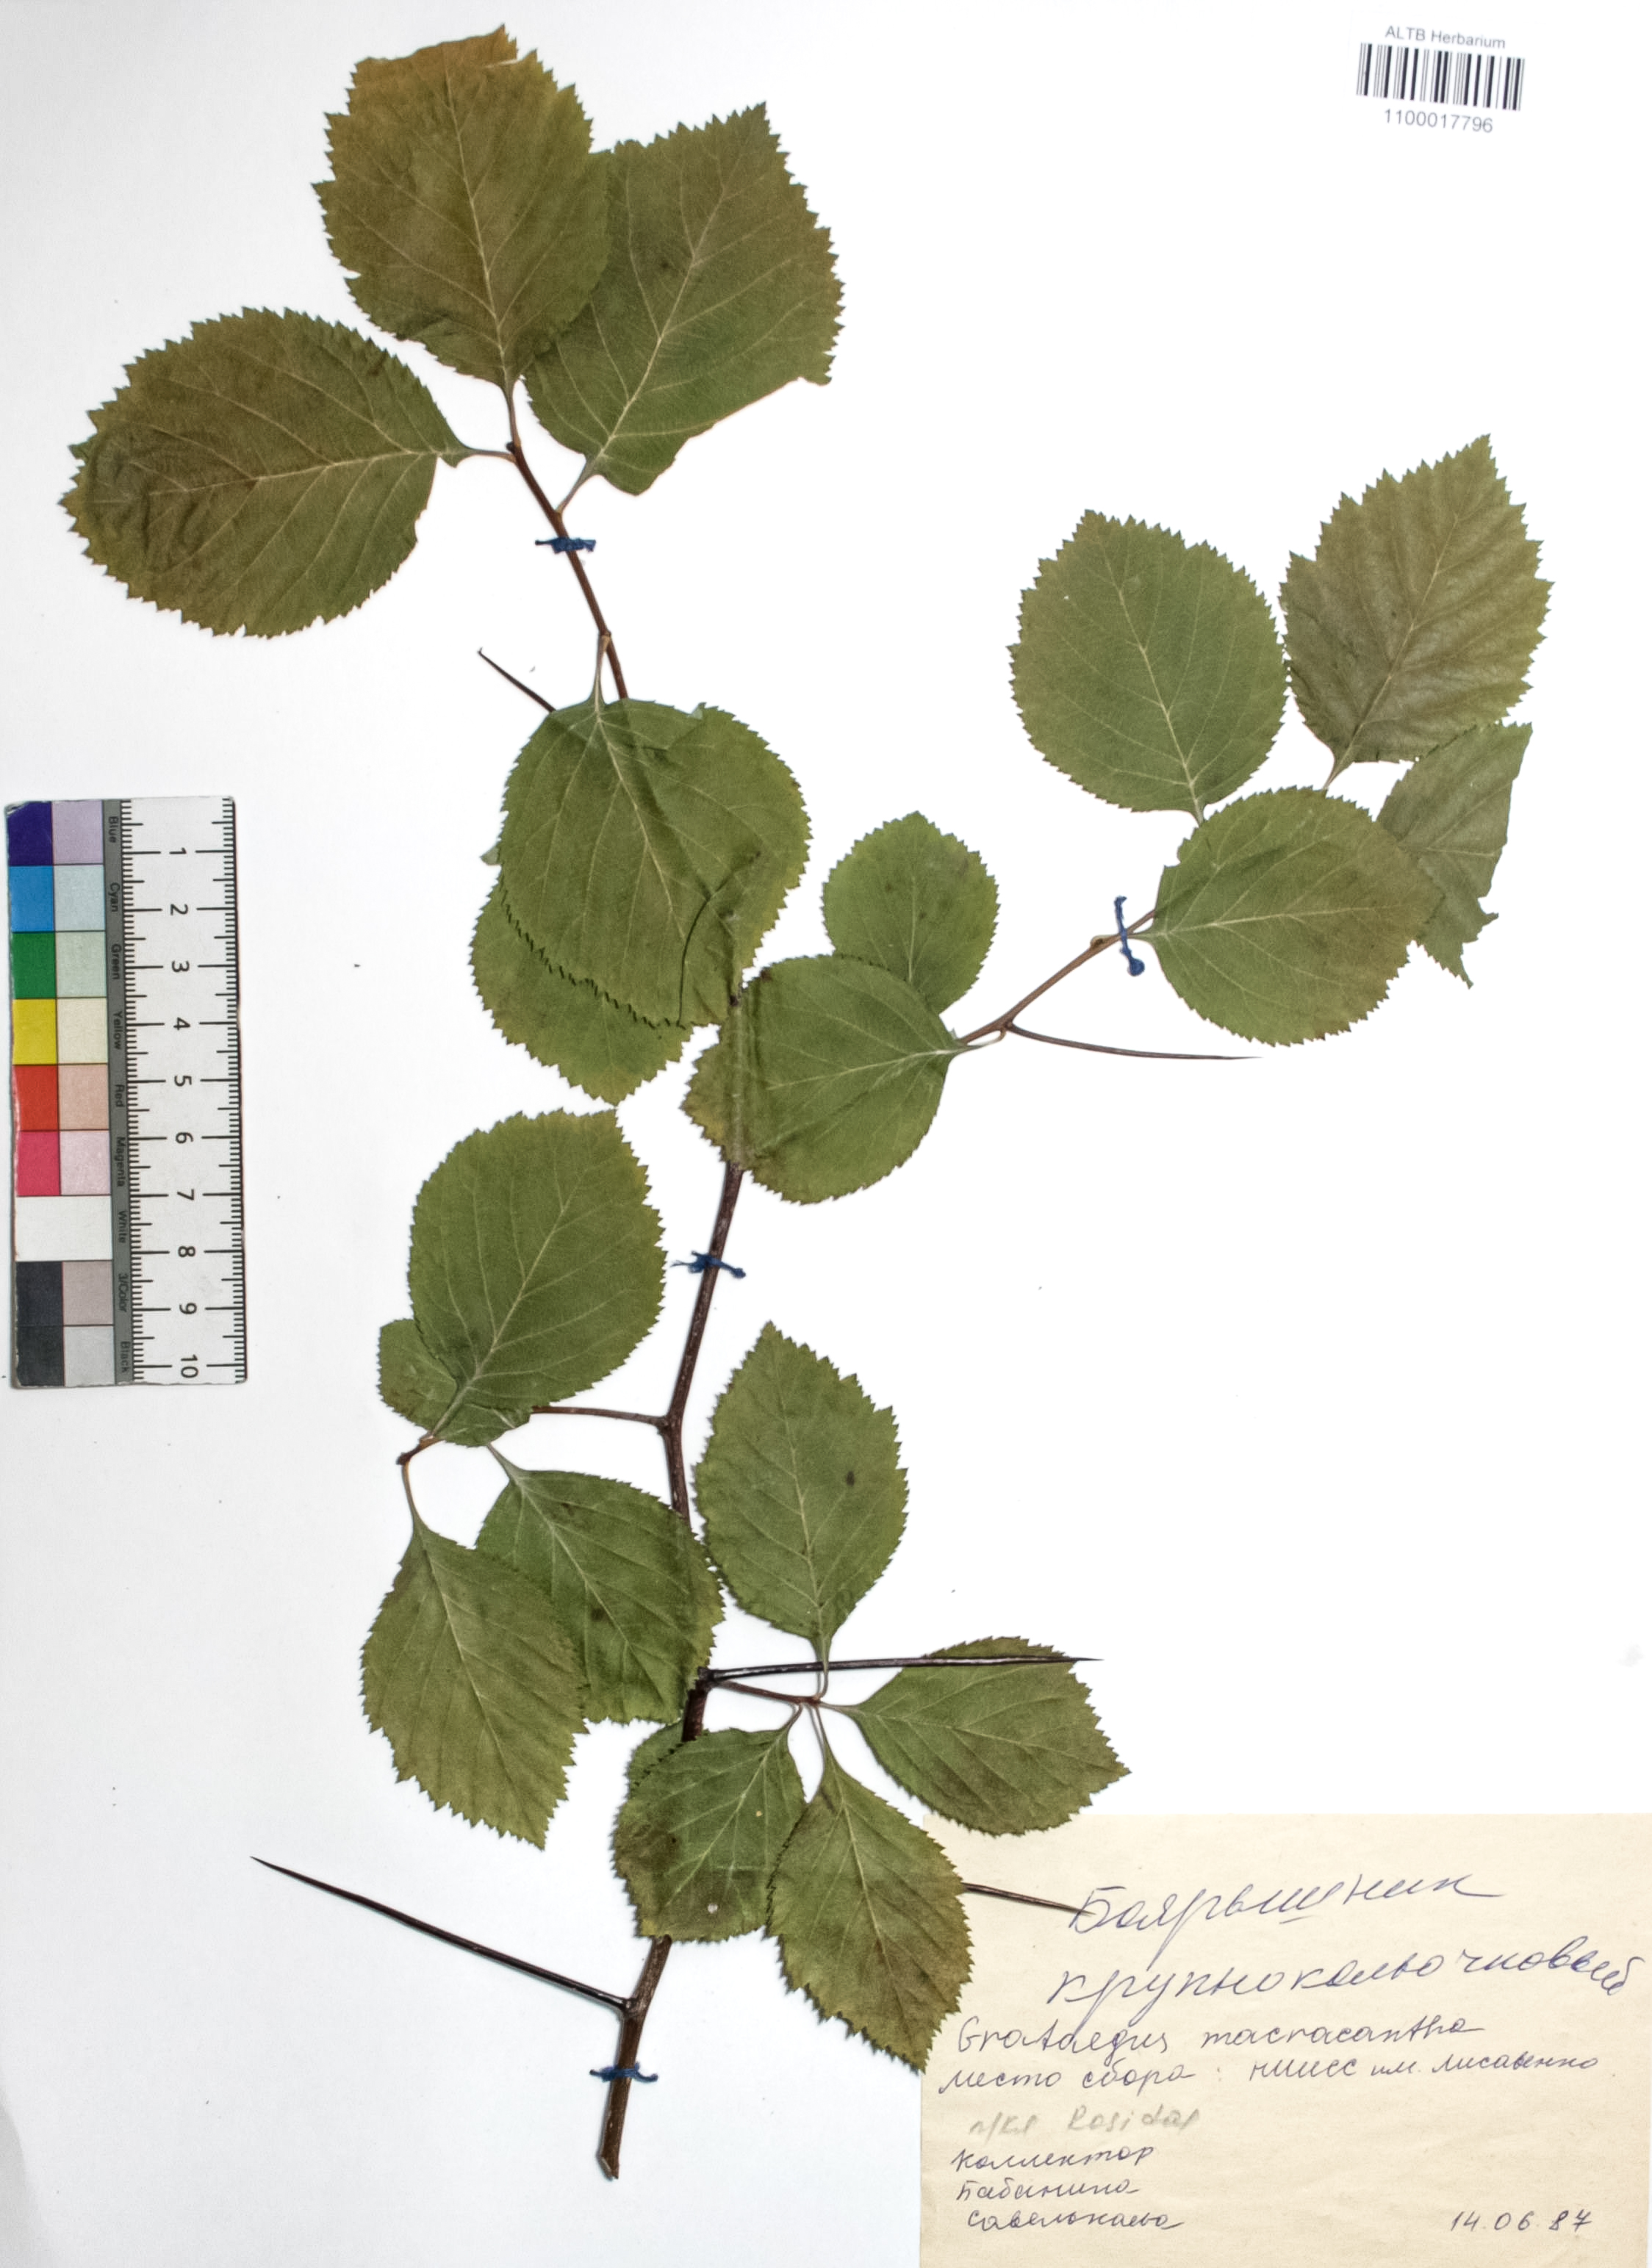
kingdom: Plantae
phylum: Tracheophyta
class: Magnoliopsida
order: Rosales
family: Rosaceae
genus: Crataegus
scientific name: Crataegus macracantha
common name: Large-thorn hawthorn
